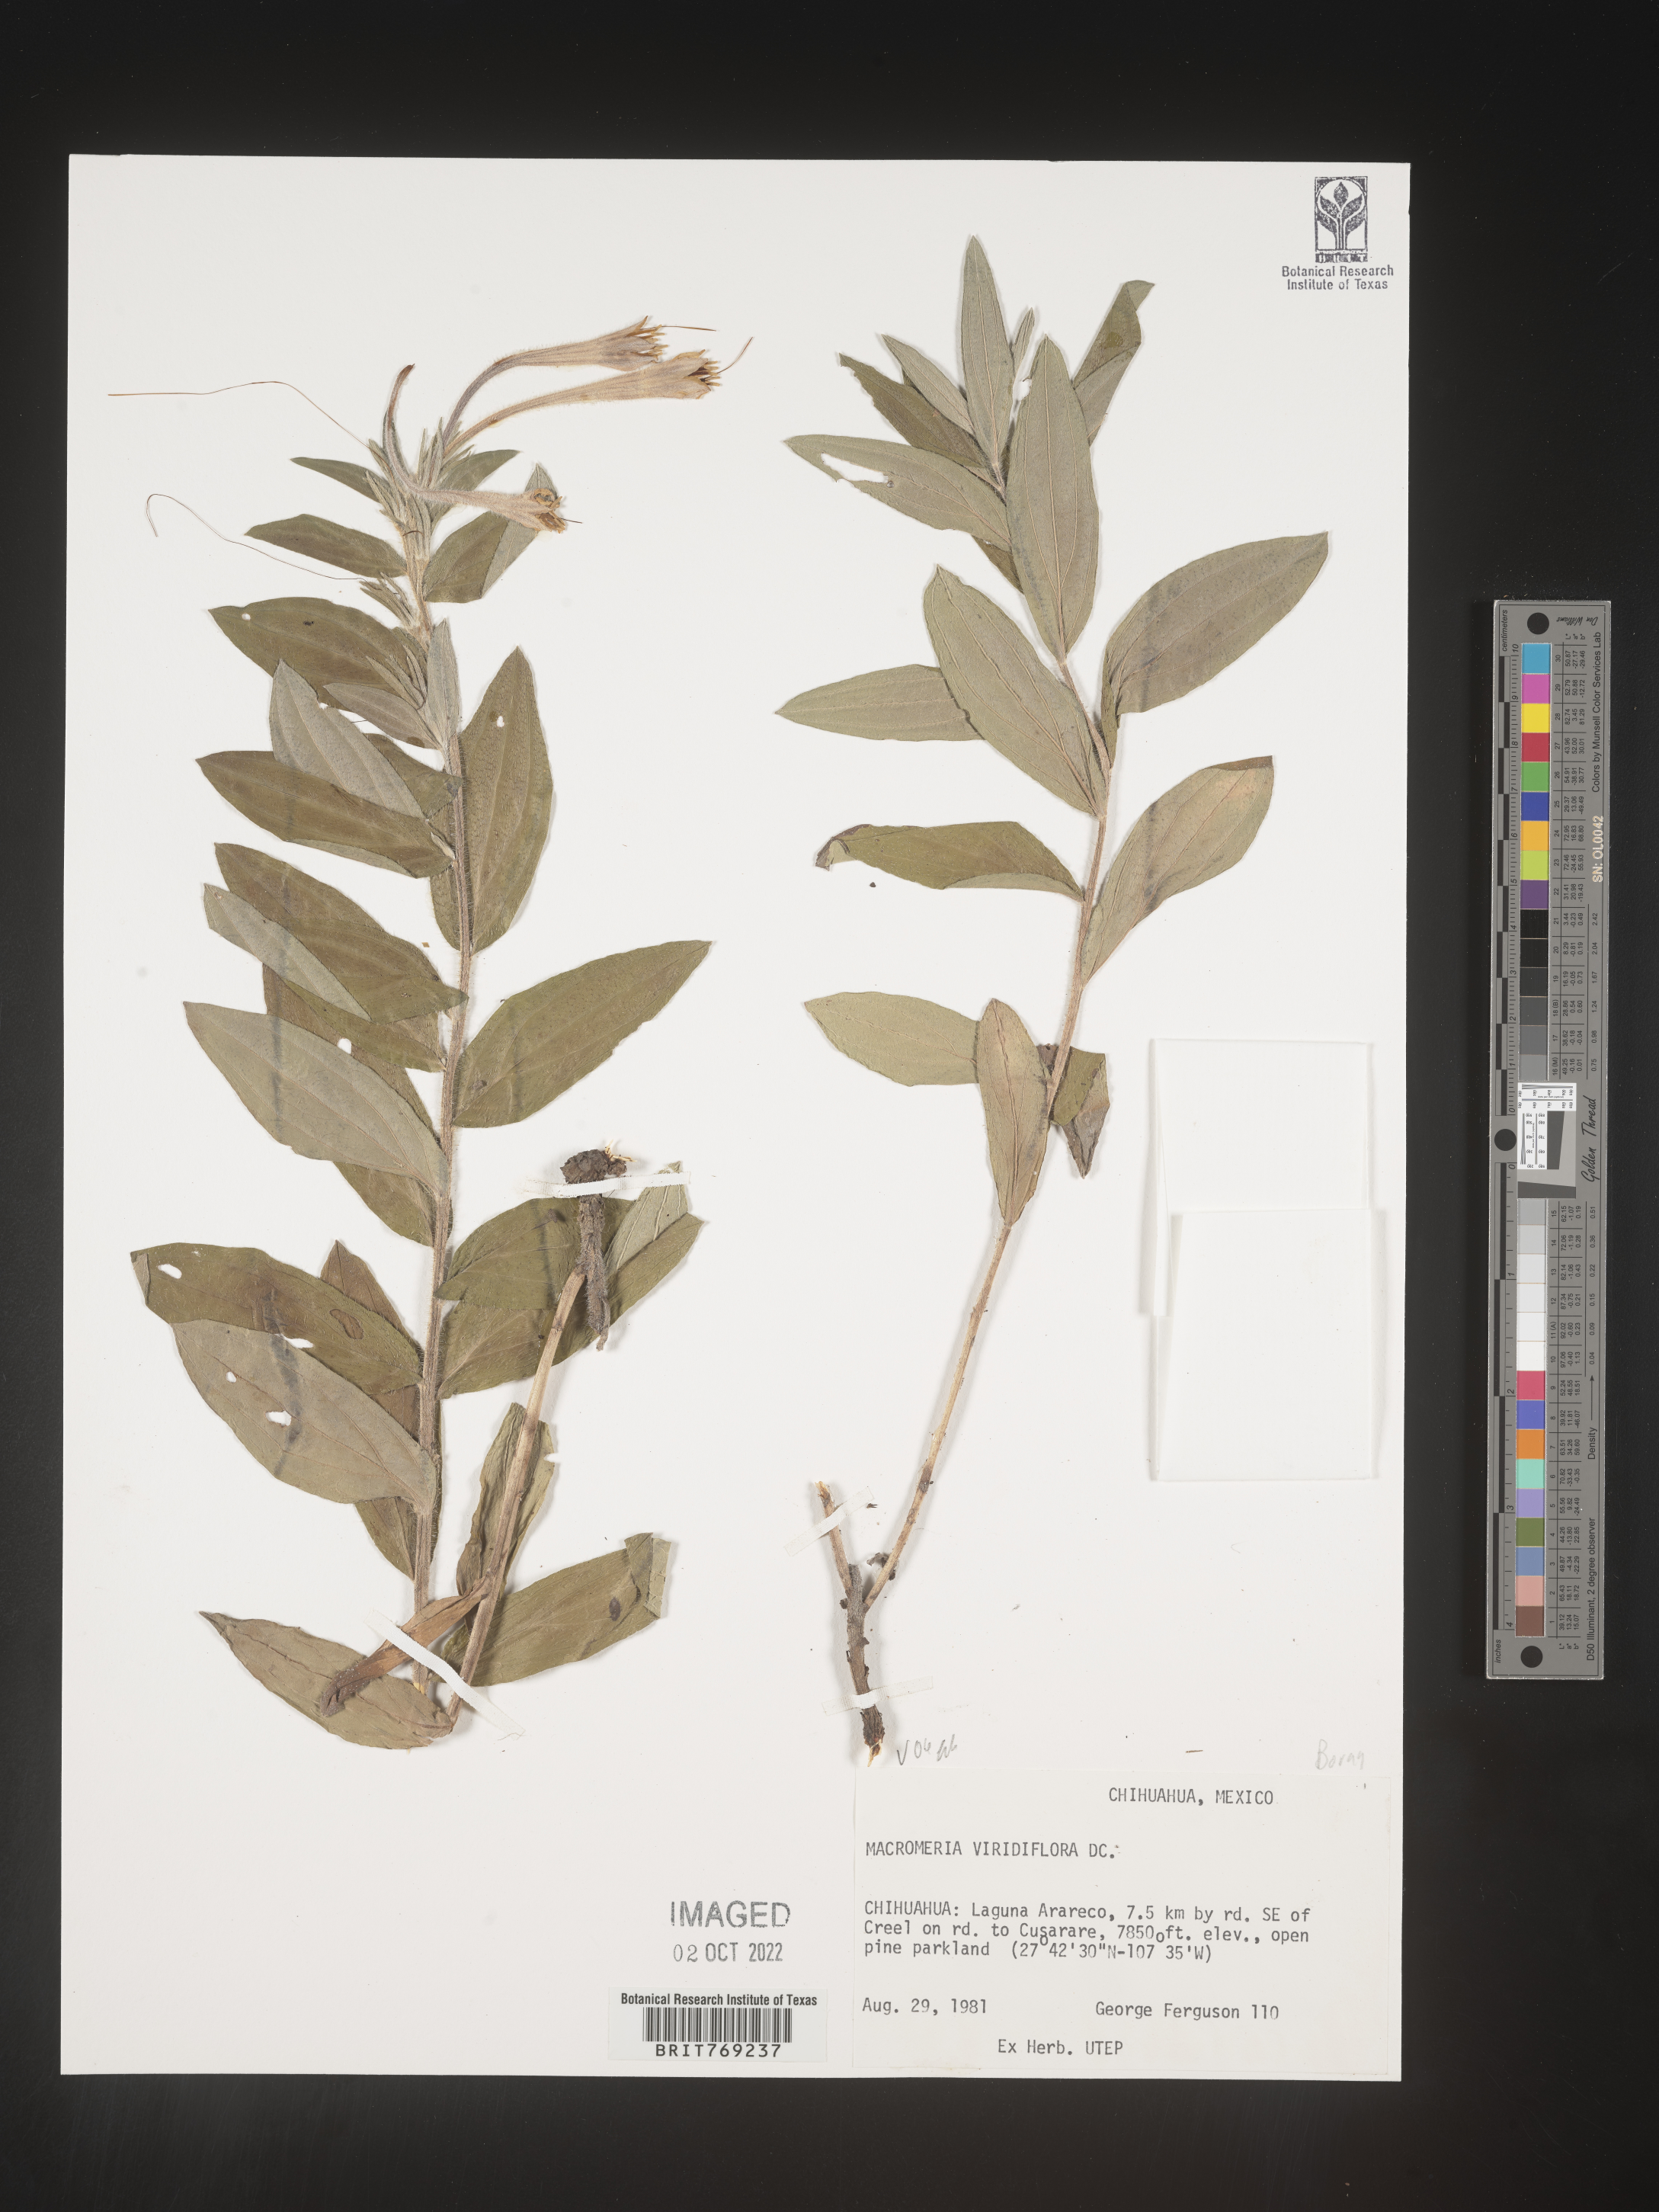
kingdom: Animalia
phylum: Arthropoda
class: Insecta
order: Hymenoptera
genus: Macromeria
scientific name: Macromeria
